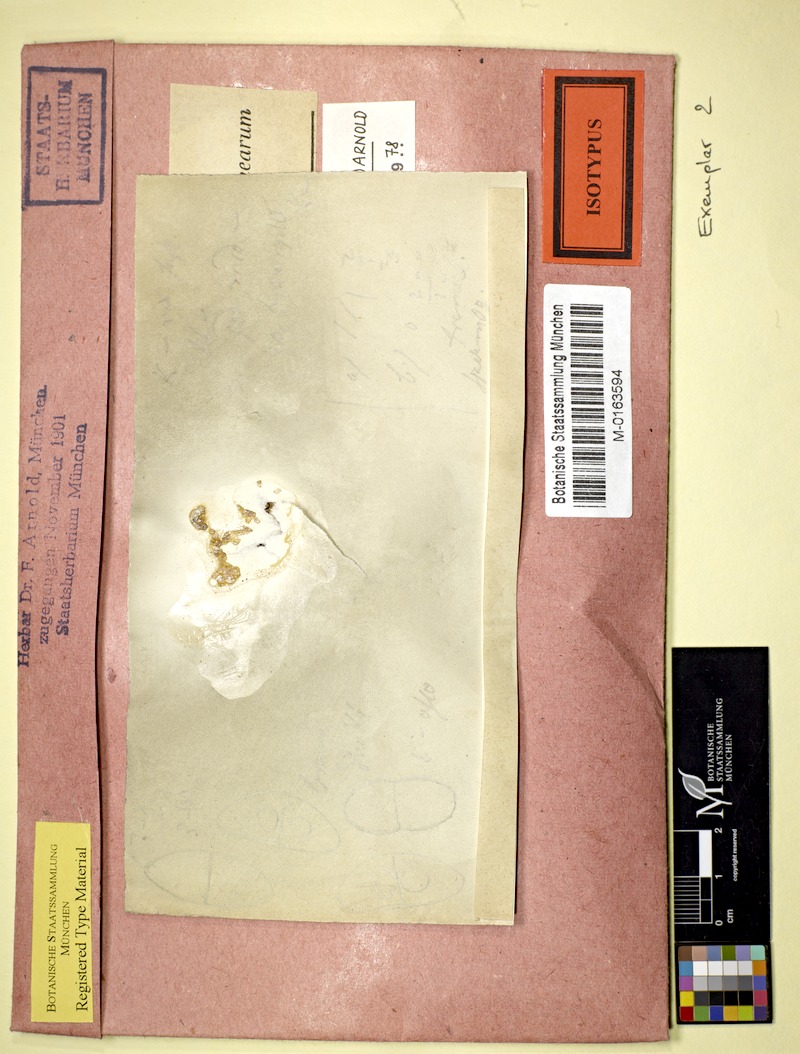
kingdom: Fungi
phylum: Ascomycota
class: Lecanoromycetes
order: Caliciales
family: Physciaceae
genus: Rinodina
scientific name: Rinodina luridescens
